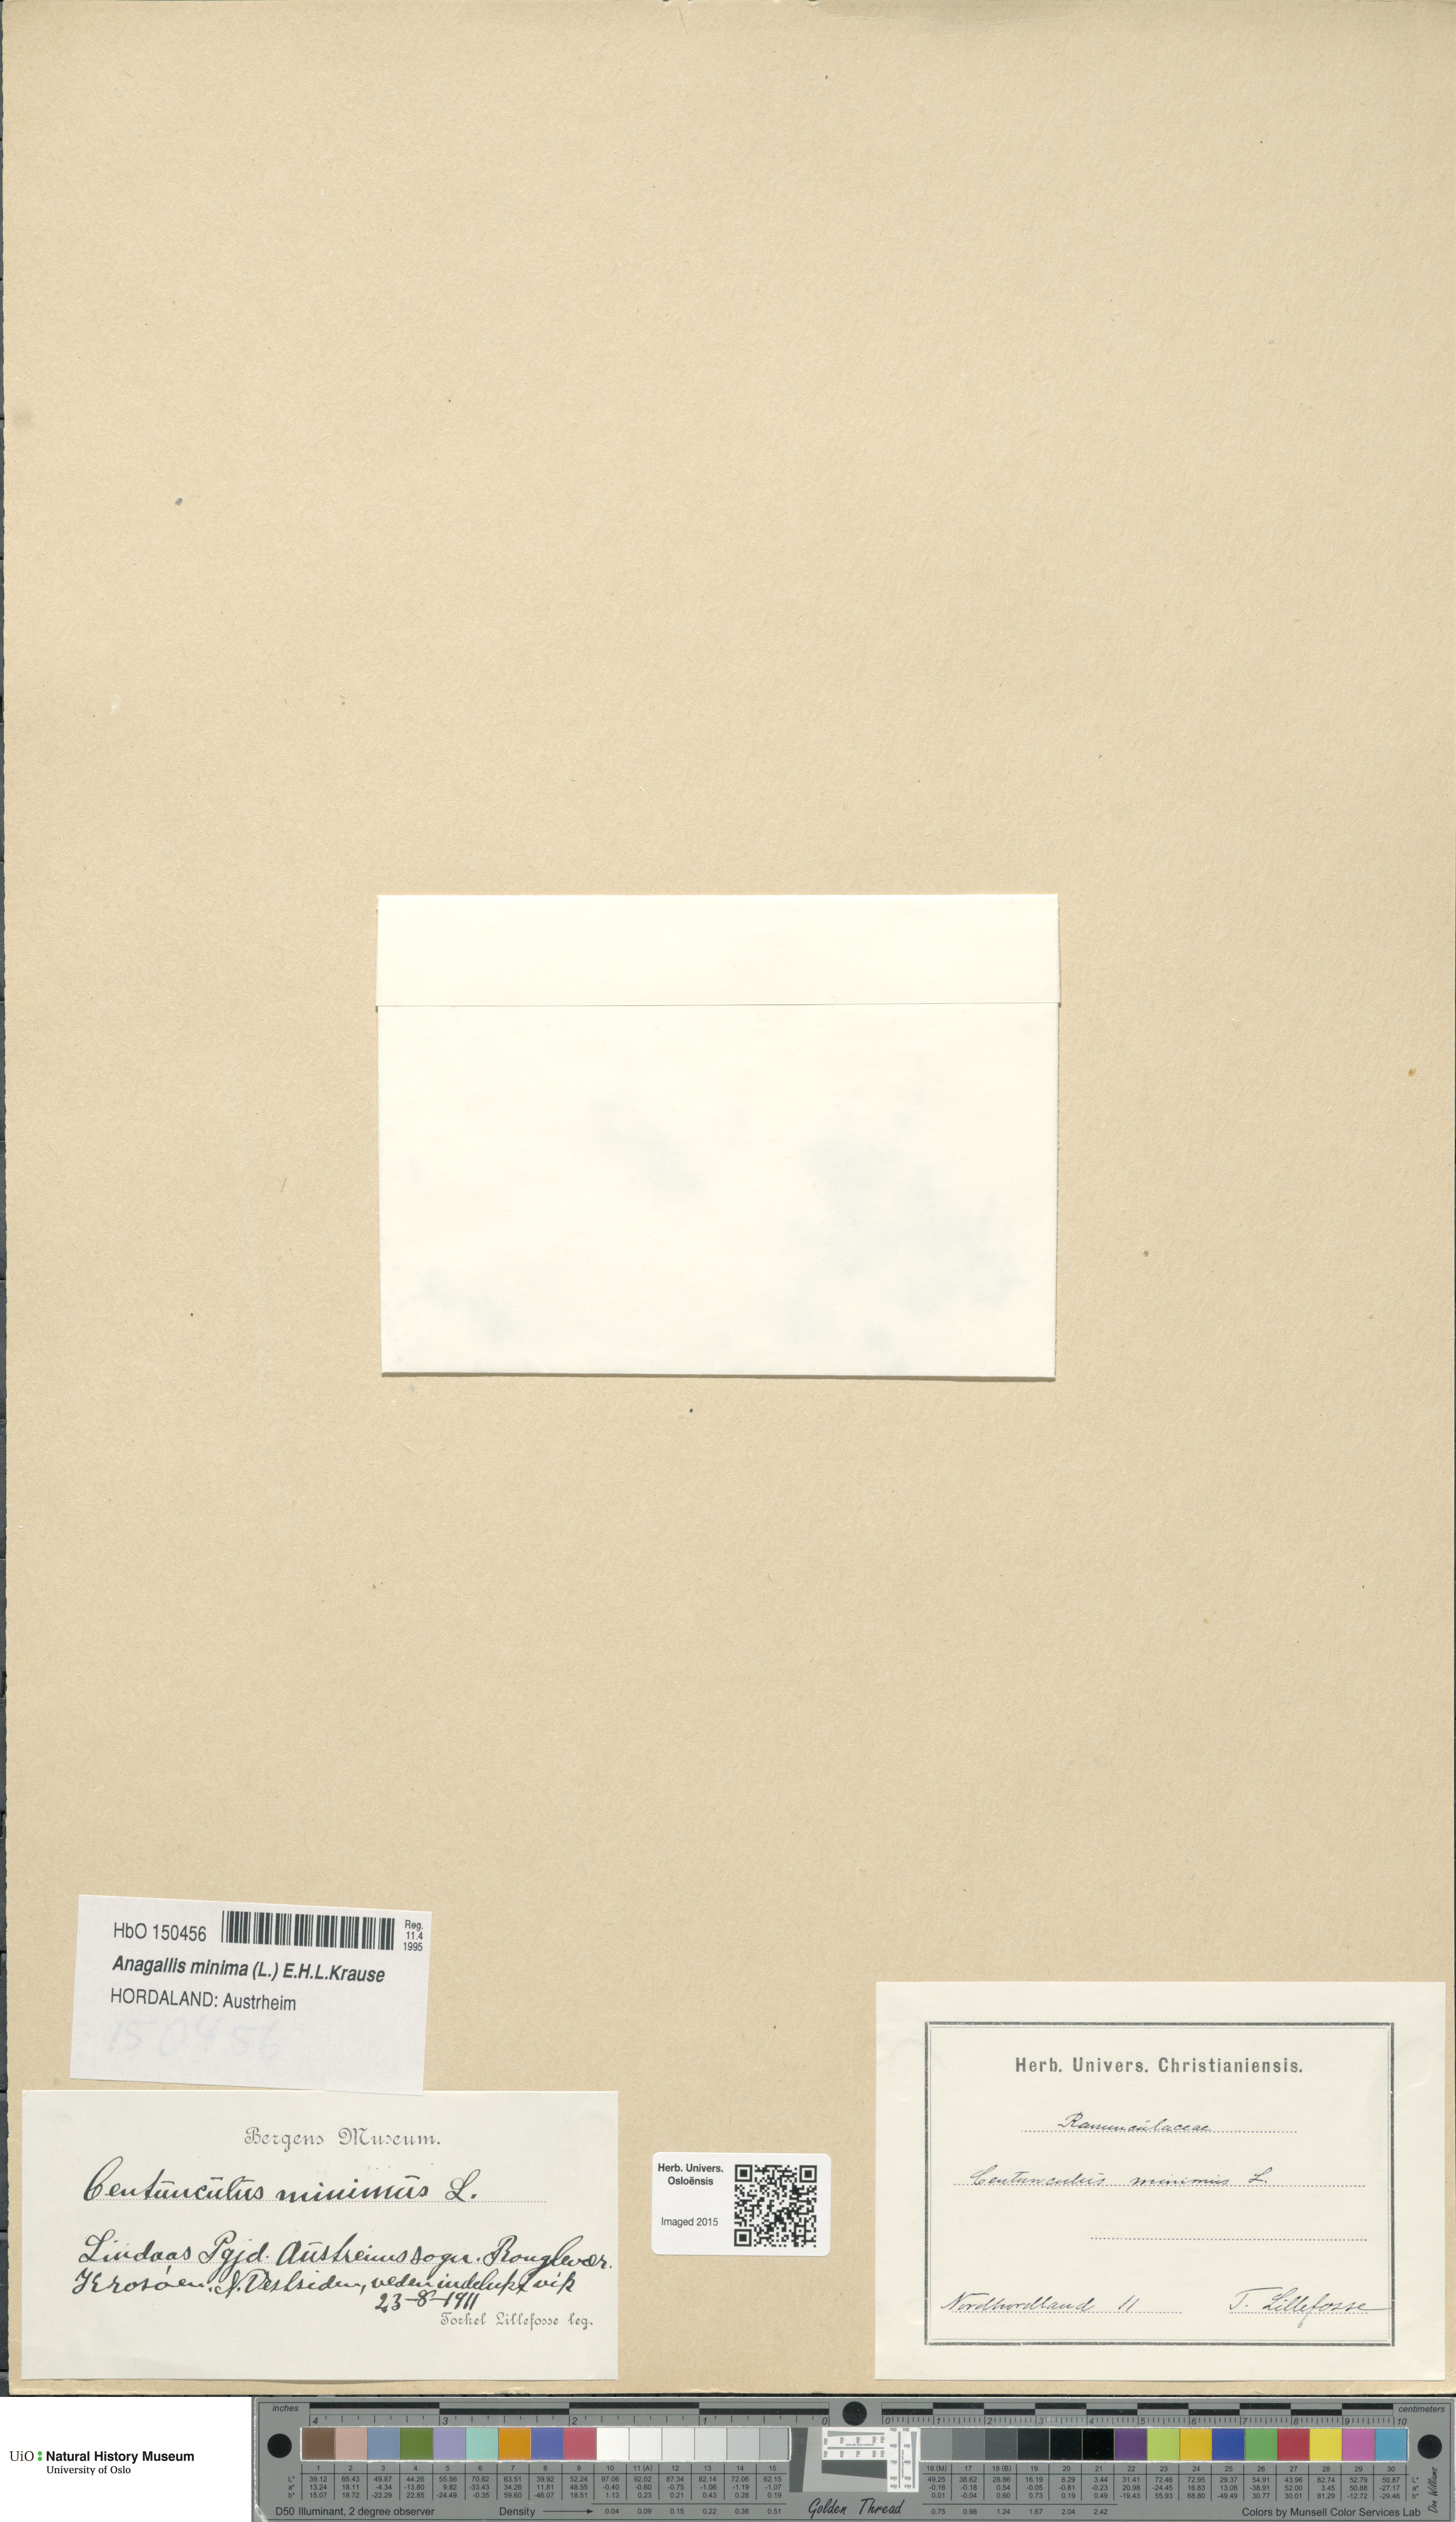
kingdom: Plantae
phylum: Tracheophyta
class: Magnoliopsida
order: Ericales
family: Primulaceae
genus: Lysimachia
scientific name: Lysimachia minima
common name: Chaffweed
